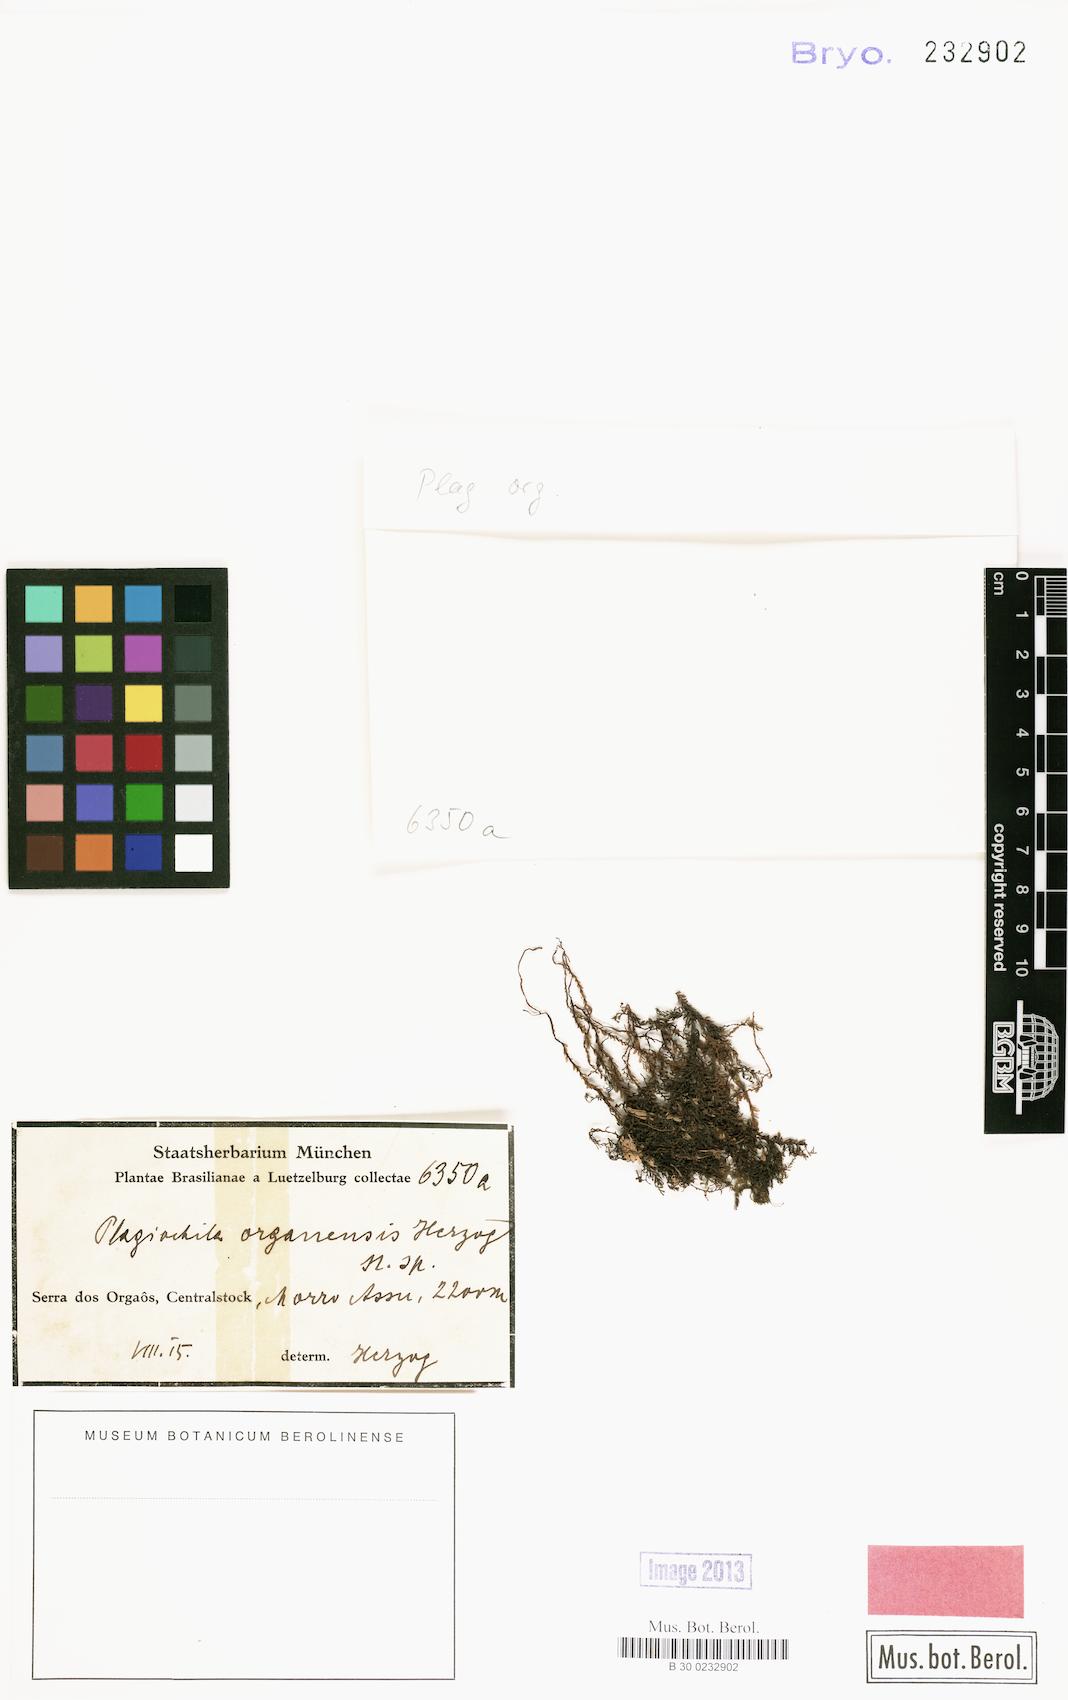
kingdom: Plantae
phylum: Marchantiophyta
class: Jungermanniopsida
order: Jungermanniales
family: Plagiochilaceae
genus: Plagiochila
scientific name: Plagiochila rutilans
